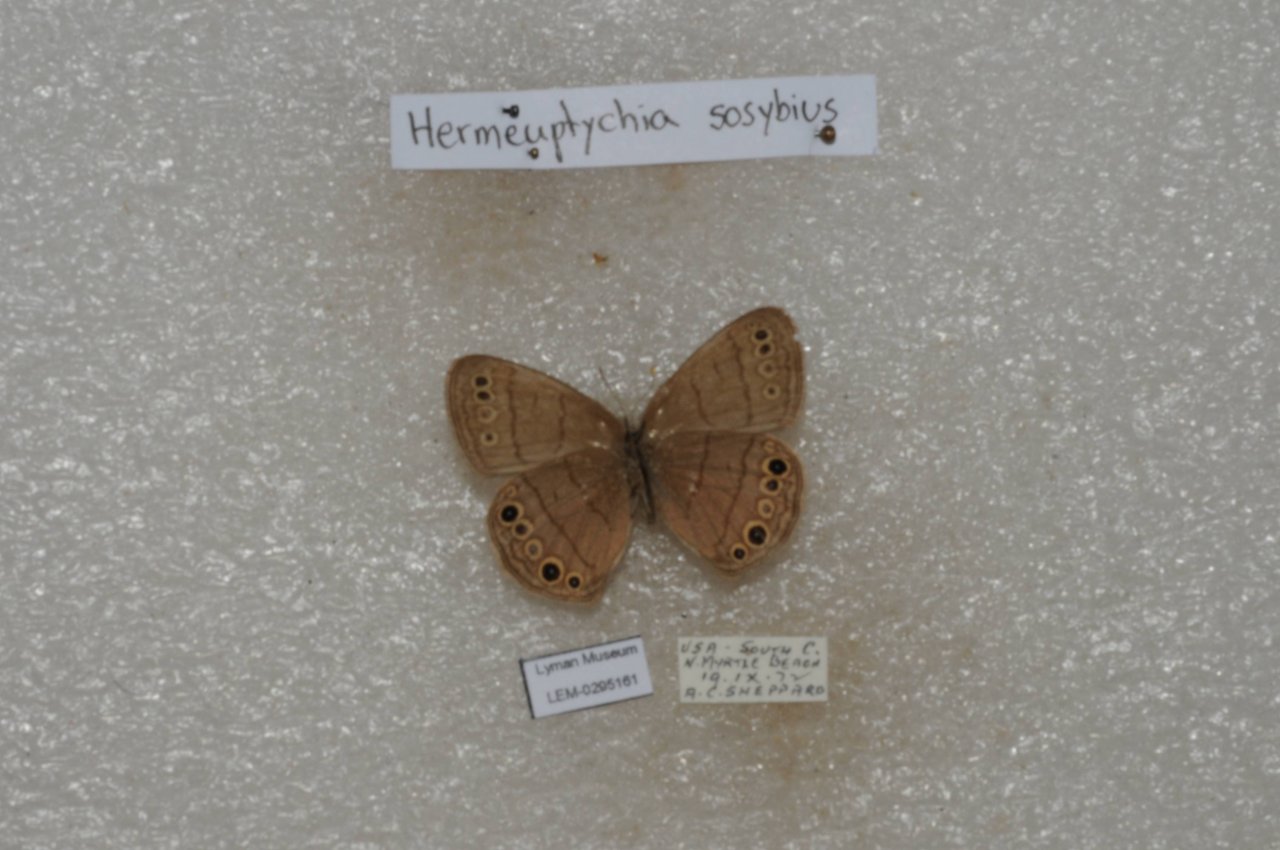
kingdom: Animalia
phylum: Arthropoda
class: Insecta
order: Lepidoptera
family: Nymphalidae
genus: Hermeuptychia
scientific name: Hermeuptychia hermes
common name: Carolina Satyr
